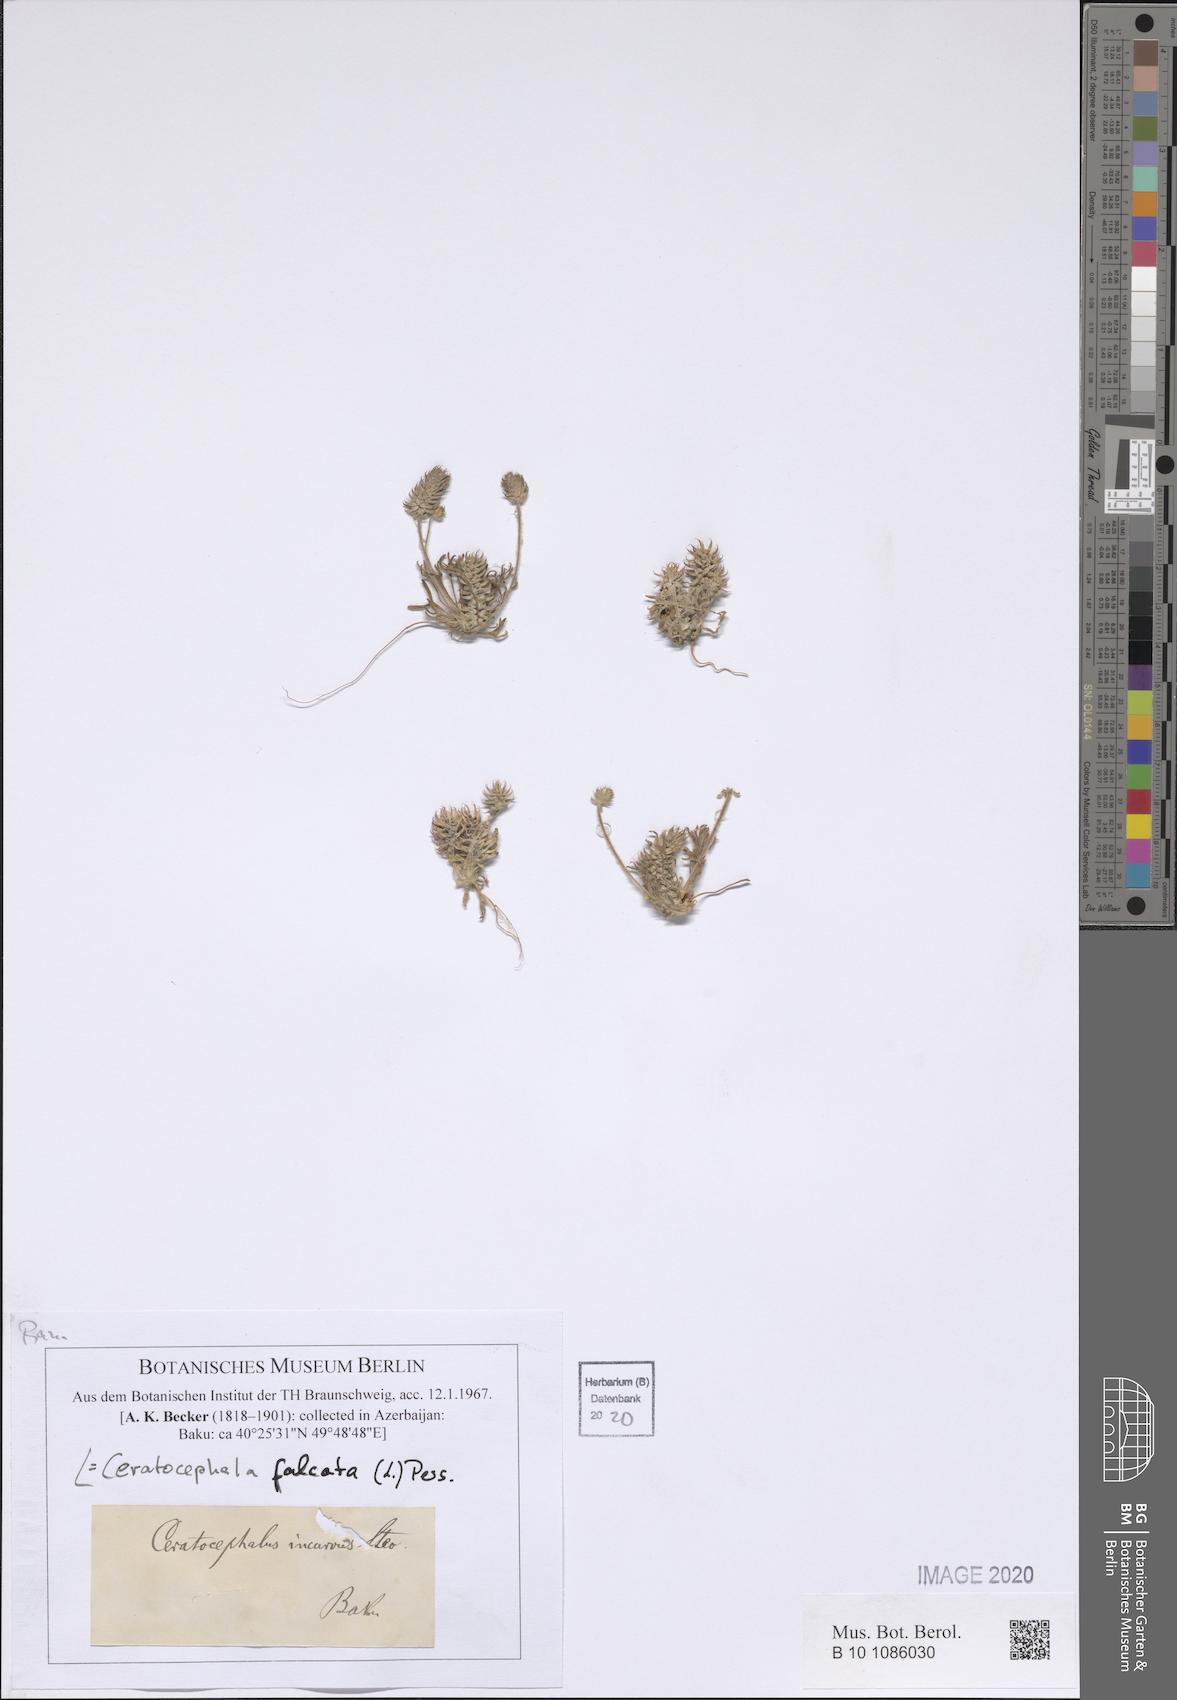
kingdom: Plantae
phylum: Tracheophyta
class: Magnoliopsida
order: Ranunculales
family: Ranunculaceae
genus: Ceratocephala
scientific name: Ceratocephala falcata
